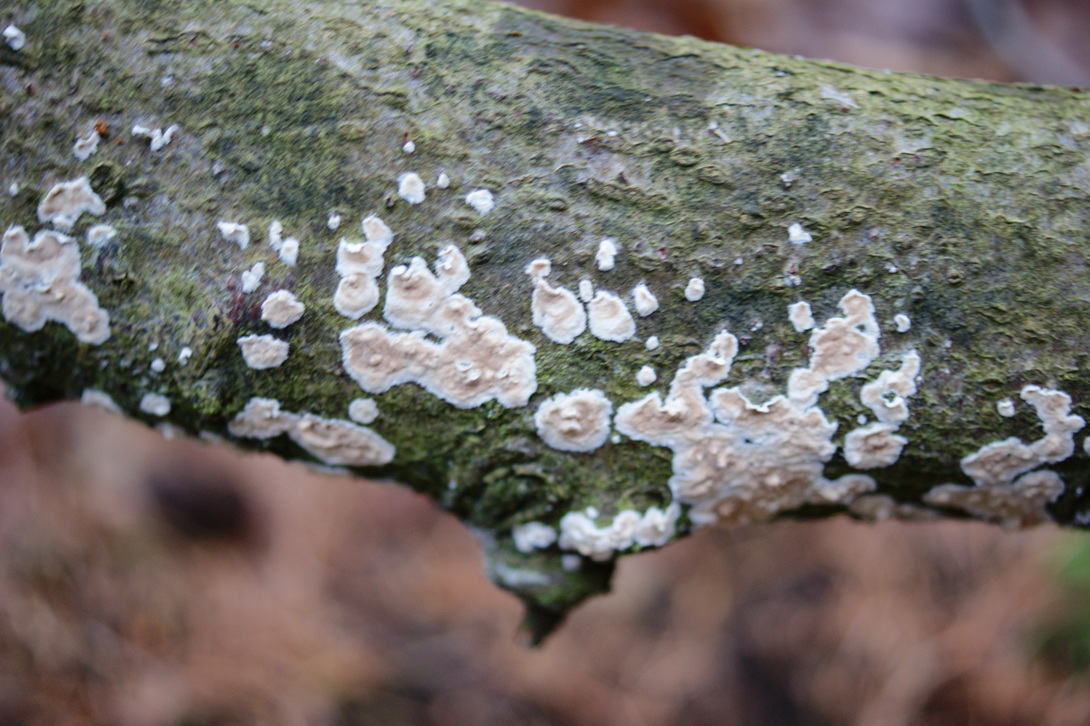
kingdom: Fungi
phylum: Basidiomycota
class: Agaricomycetes
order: Agaricales
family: Physalacriaceae
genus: Cylindrobasidium
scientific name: Cylindrobasidium evolvens
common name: sprækkehinde
